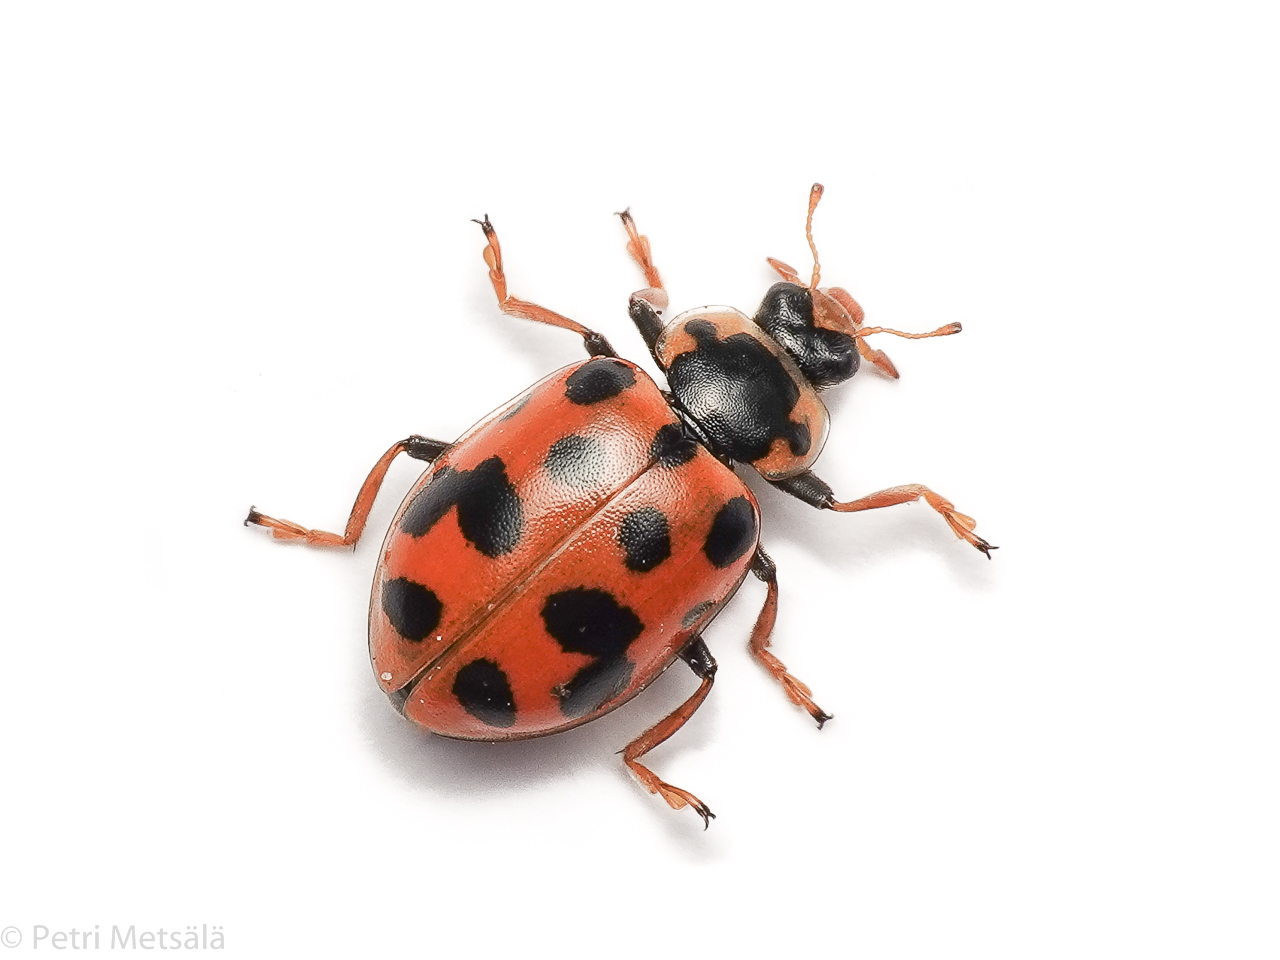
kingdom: Animalia
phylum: Arthropoda
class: Insecta
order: Coleoptera
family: Coccinellidae
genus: Hippodamia
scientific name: Hippodamia tredecimpunctata
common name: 13-spot ladybird
